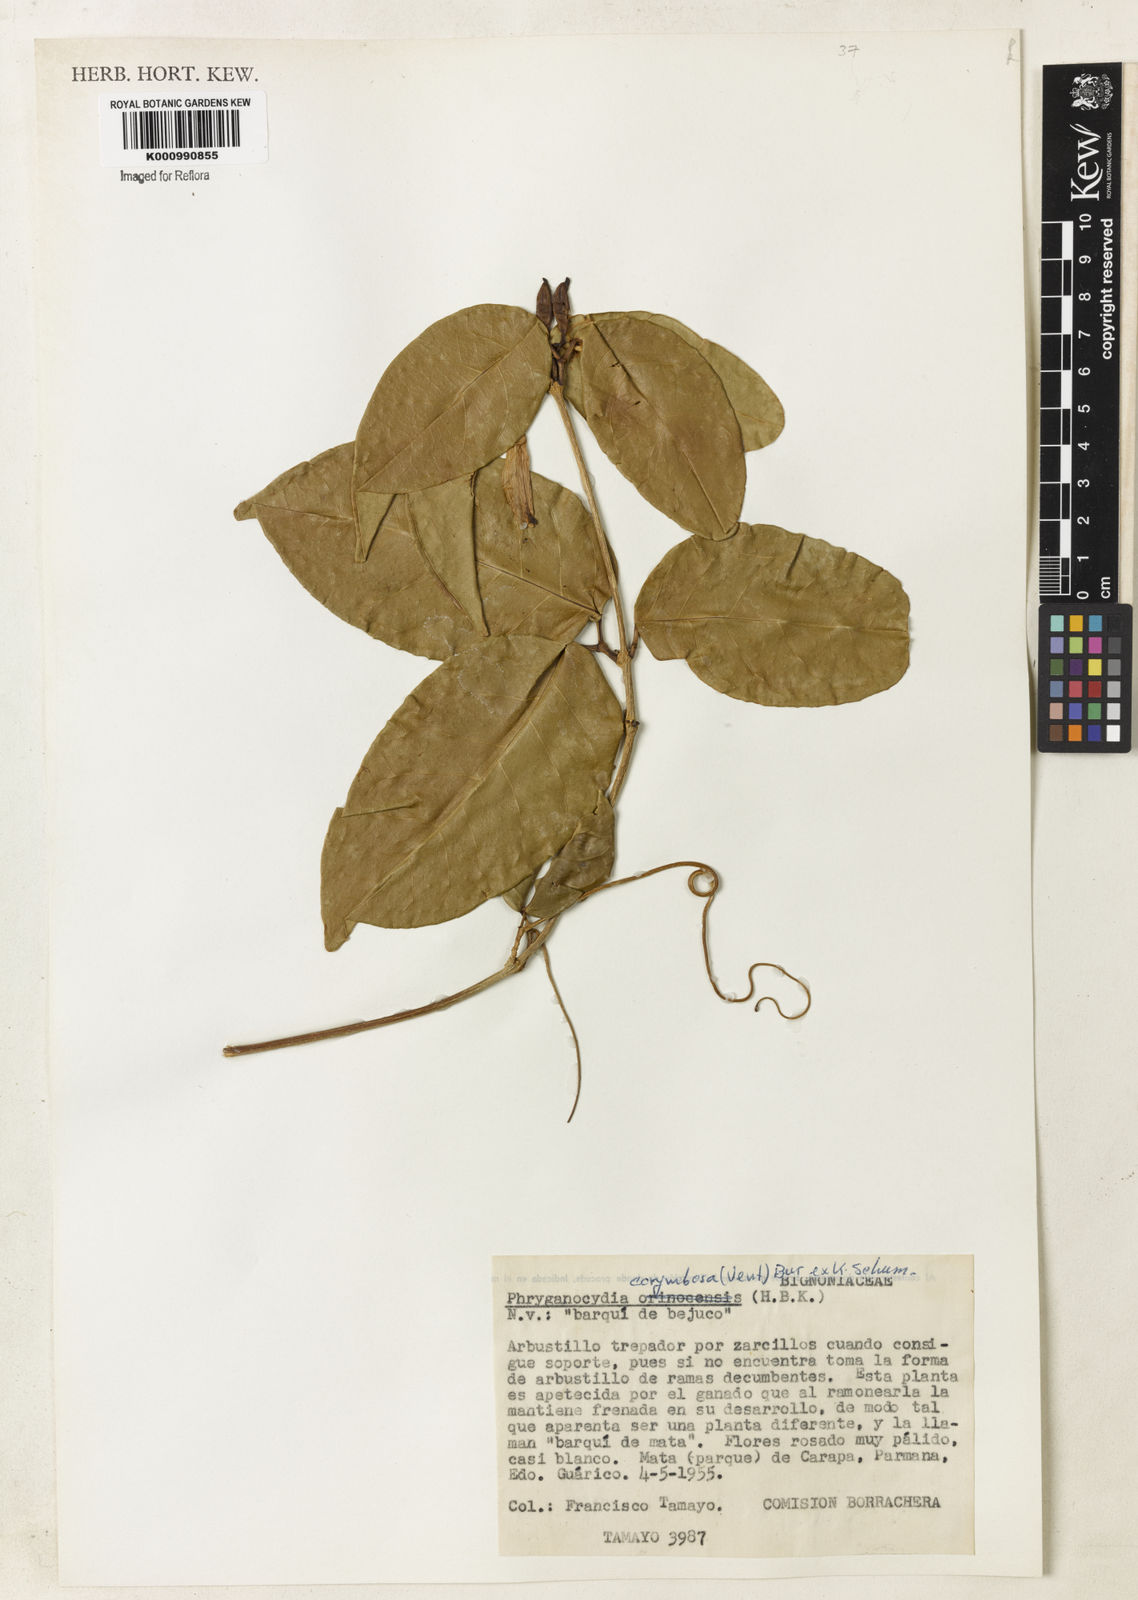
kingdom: Plantae
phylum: Tracheophyta
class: Magnoliopsida
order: Lamiales
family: Bignoniaceae
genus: Bignonia
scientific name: Bignonia corymbosa
